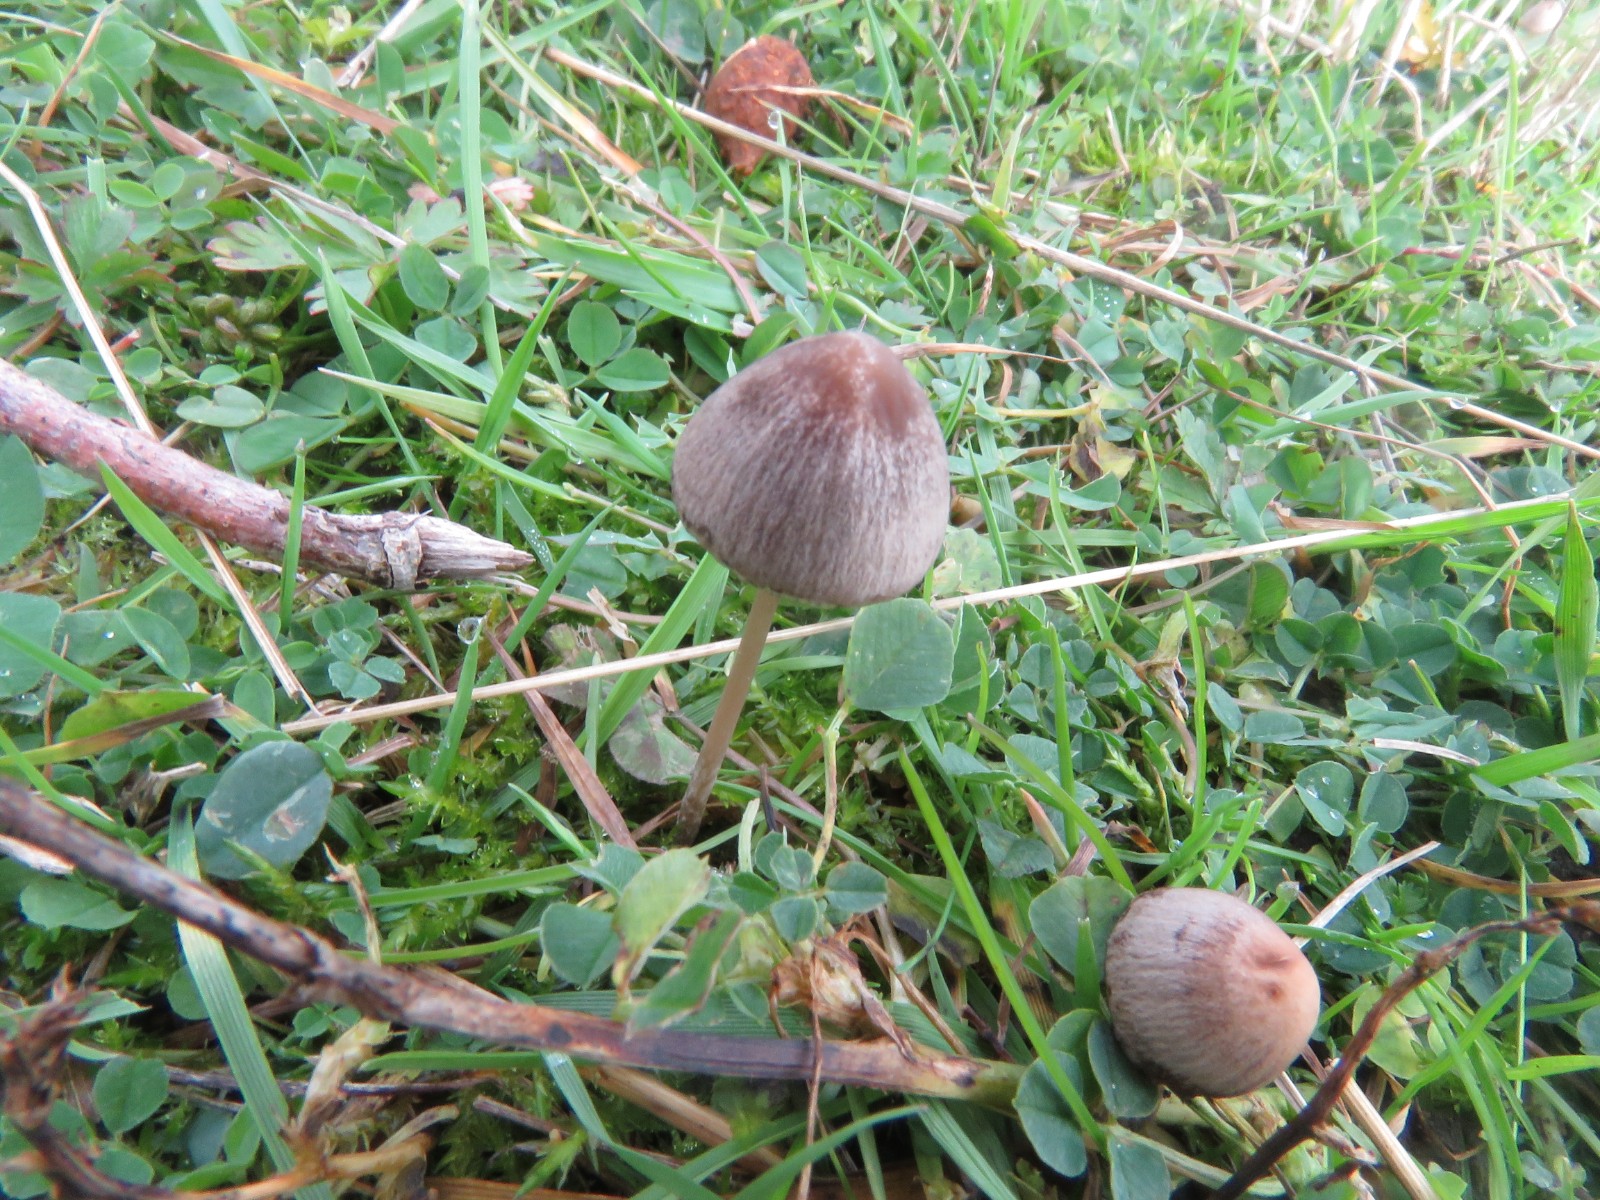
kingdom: Fungi
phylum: Basidiomycota
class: Agaricomycetes
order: Agaricales
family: Bolbitiaceae
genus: Panaeolina
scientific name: Panaeolina foenisecii
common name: høslætsvamp
